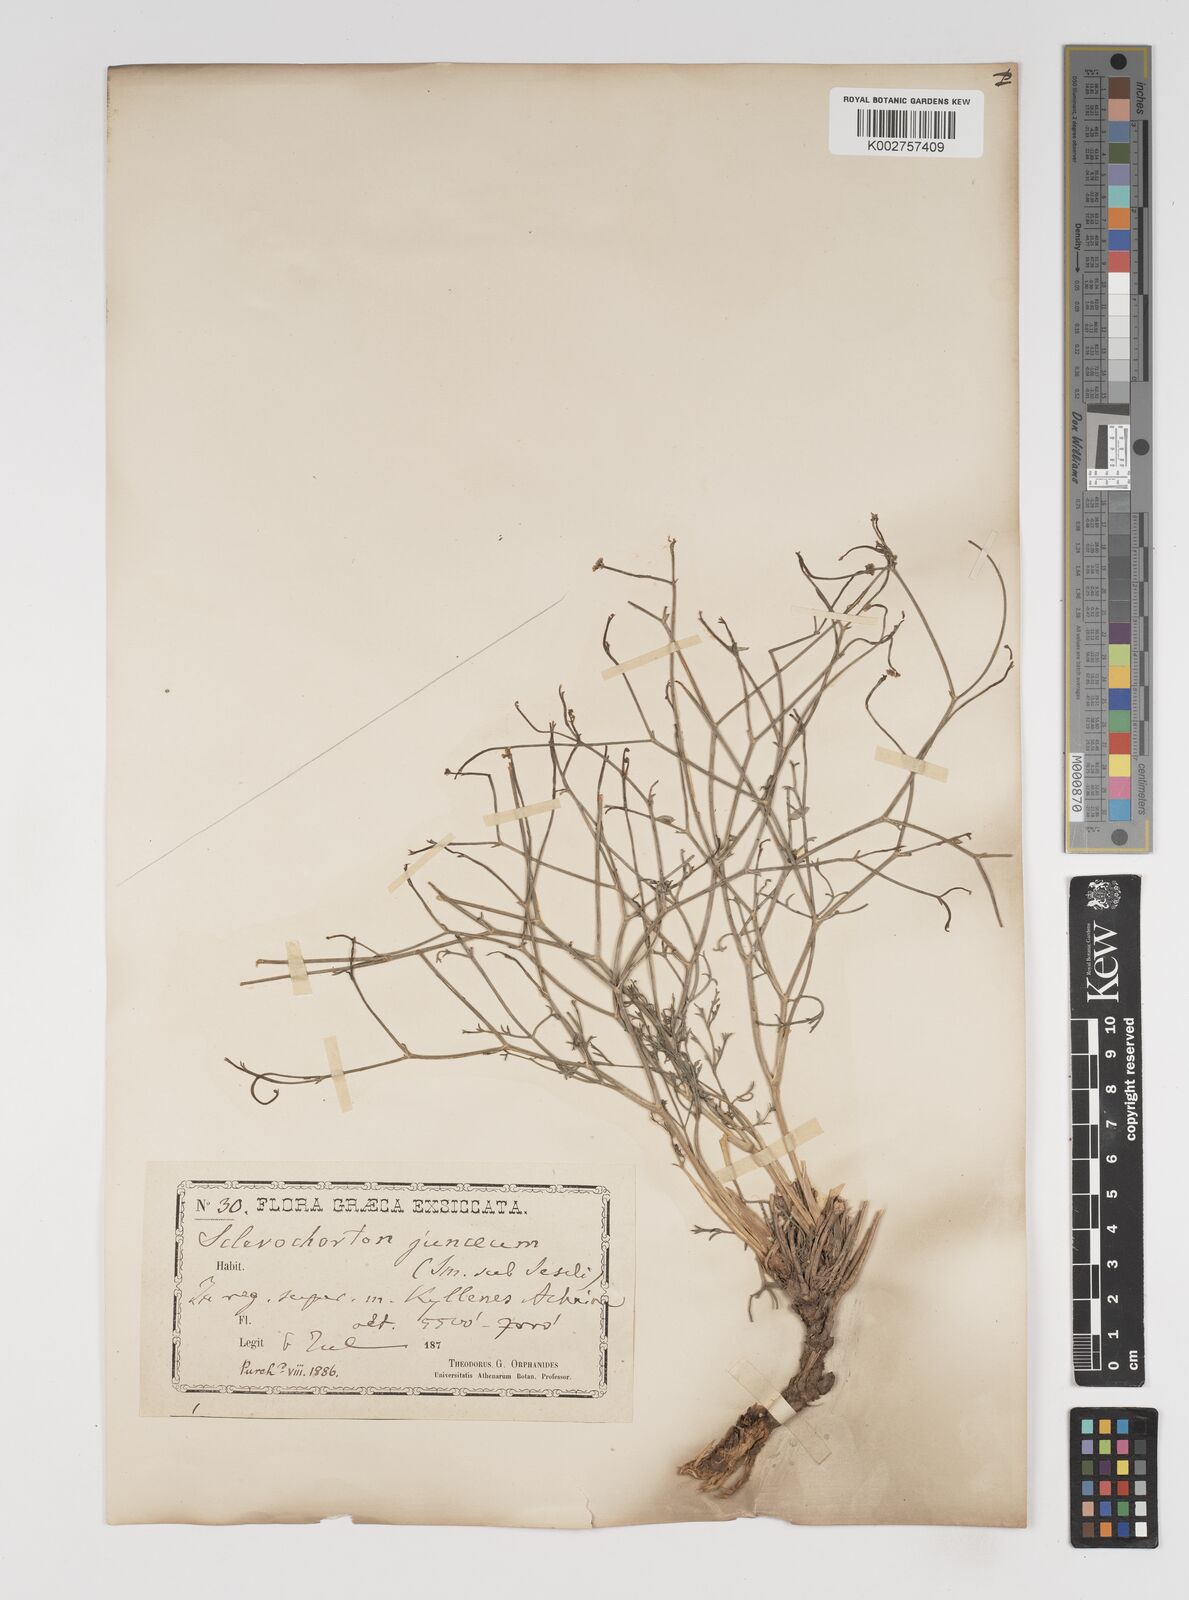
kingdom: Plantae
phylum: Tracheophyta
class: Magnoliopsida
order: Apiales
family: Apiaceae
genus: Thamnosciadium
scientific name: Thamnosciadium junceum
